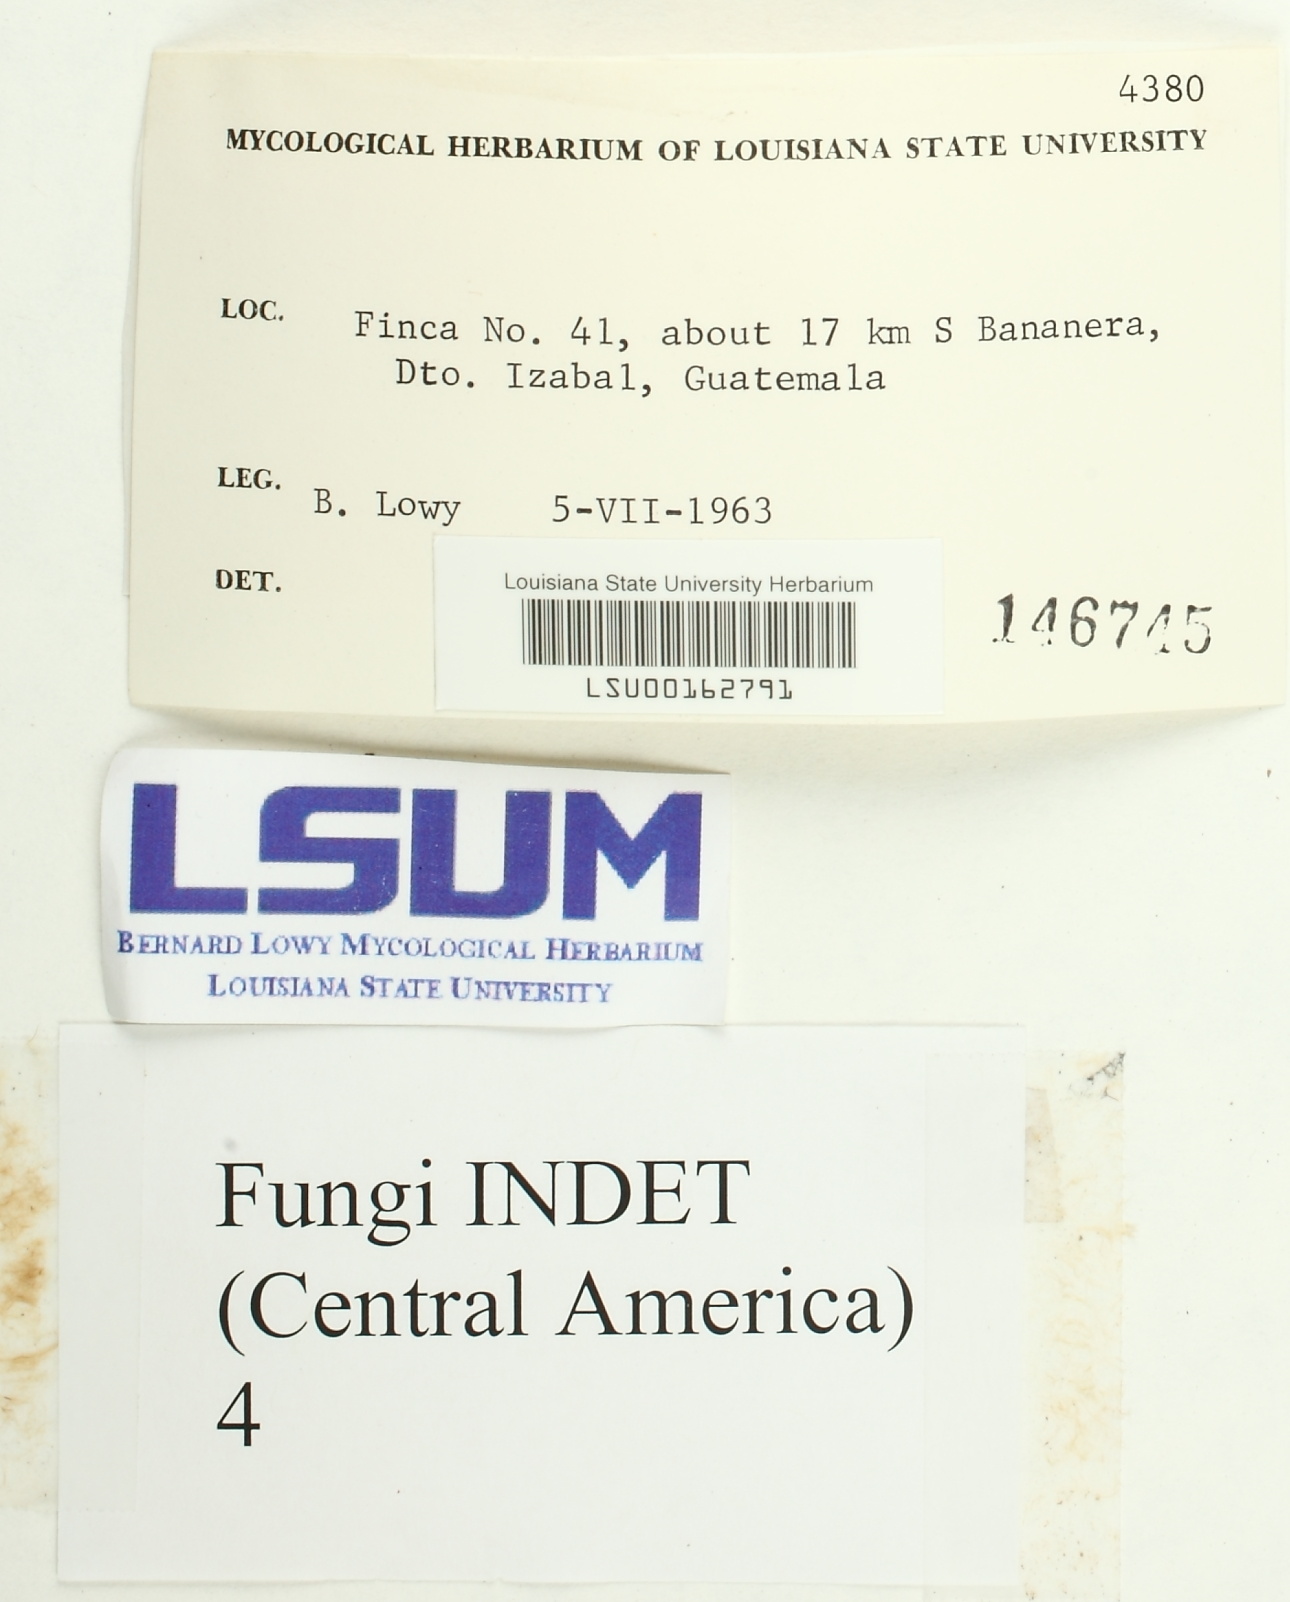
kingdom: Fungi
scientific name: Fungi
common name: Fungi
